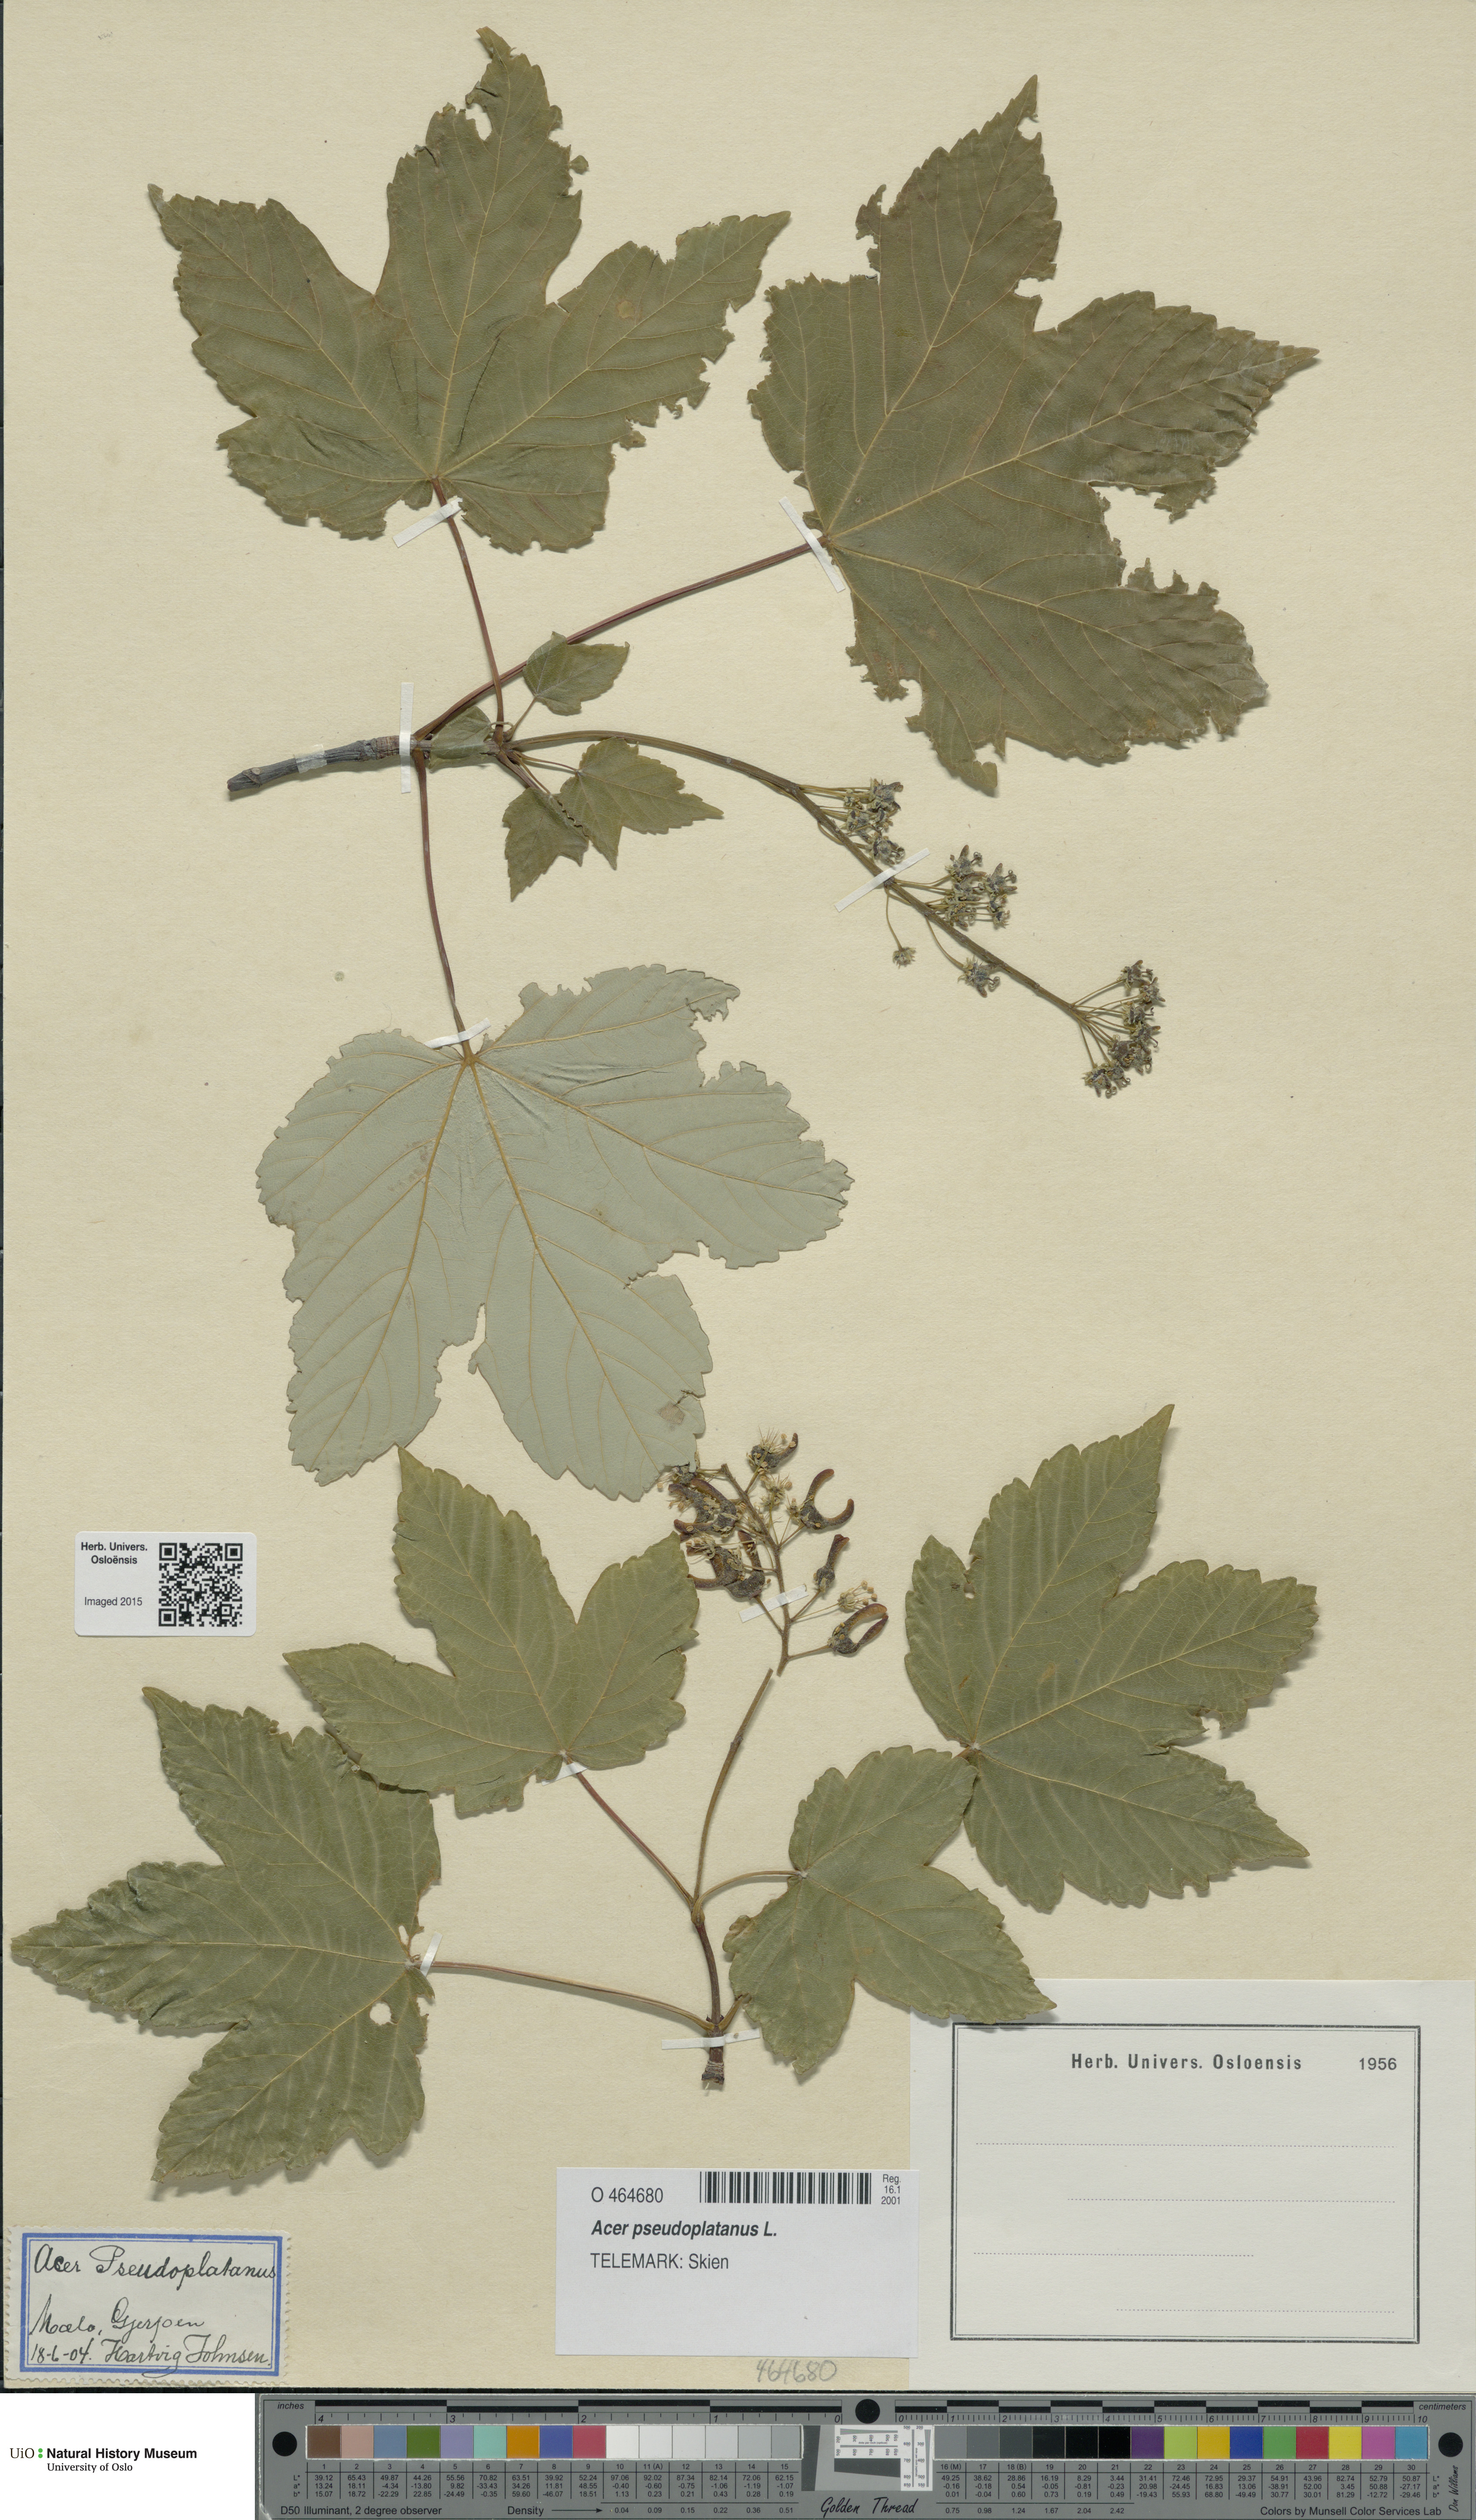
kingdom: Plantae
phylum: Tracheophyta
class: Magnoliopsida
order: Sapindales
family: Sapindaceae
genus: Acer
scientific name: Acer pseudoplatanus
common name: Sycamore
